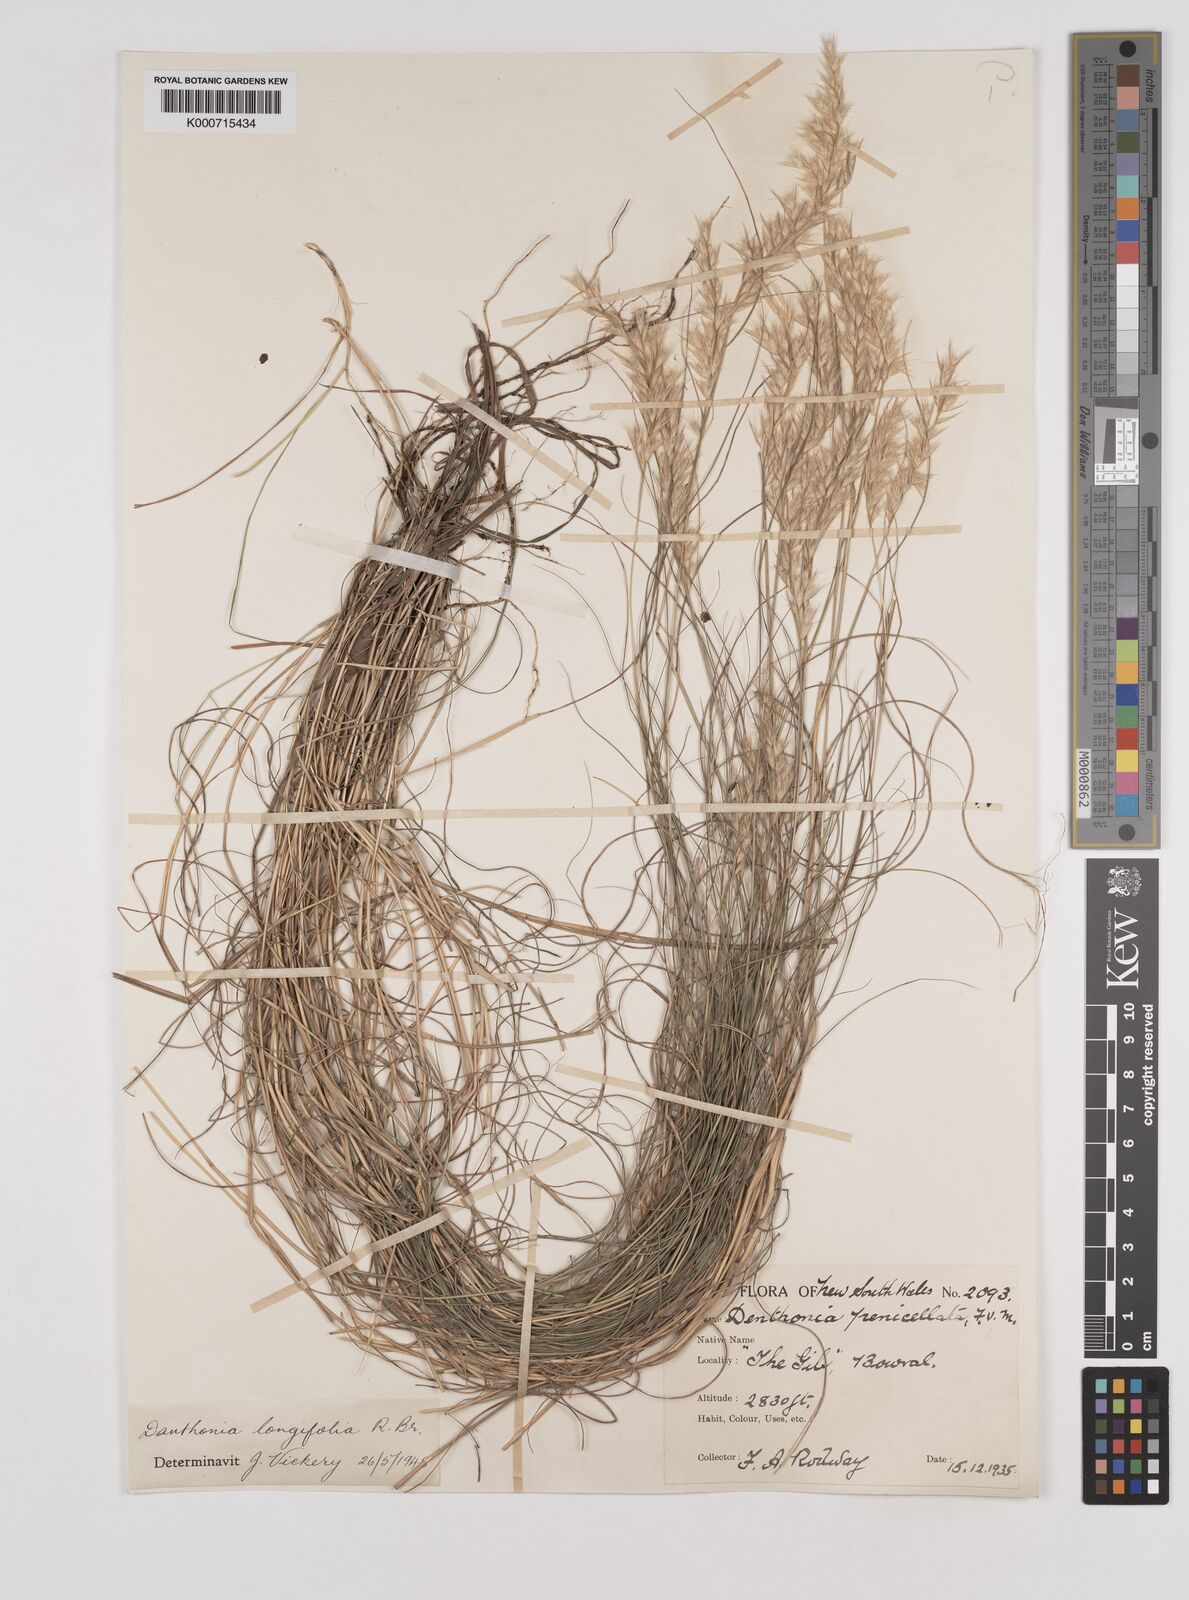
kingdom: Plantae
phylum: Tracheophyta
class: Liliopsida
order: Poales
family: Poaceae
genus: Rytidosperma
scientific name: Rytidosperma longifolium
